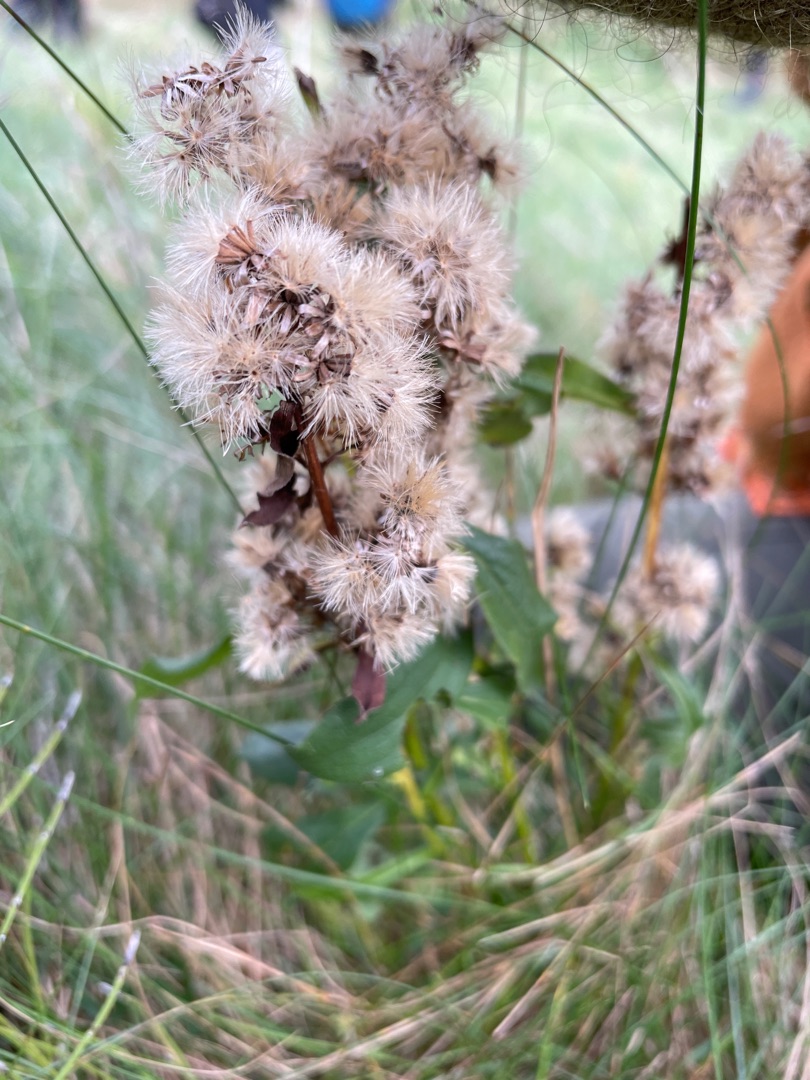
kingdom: Plantae
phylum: Tracheophyta
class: Magnoliopsida
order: Asterales
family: Asteraceae
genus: Solidago
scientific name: Solidago virgaurea
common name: Almindelig gyldenris
